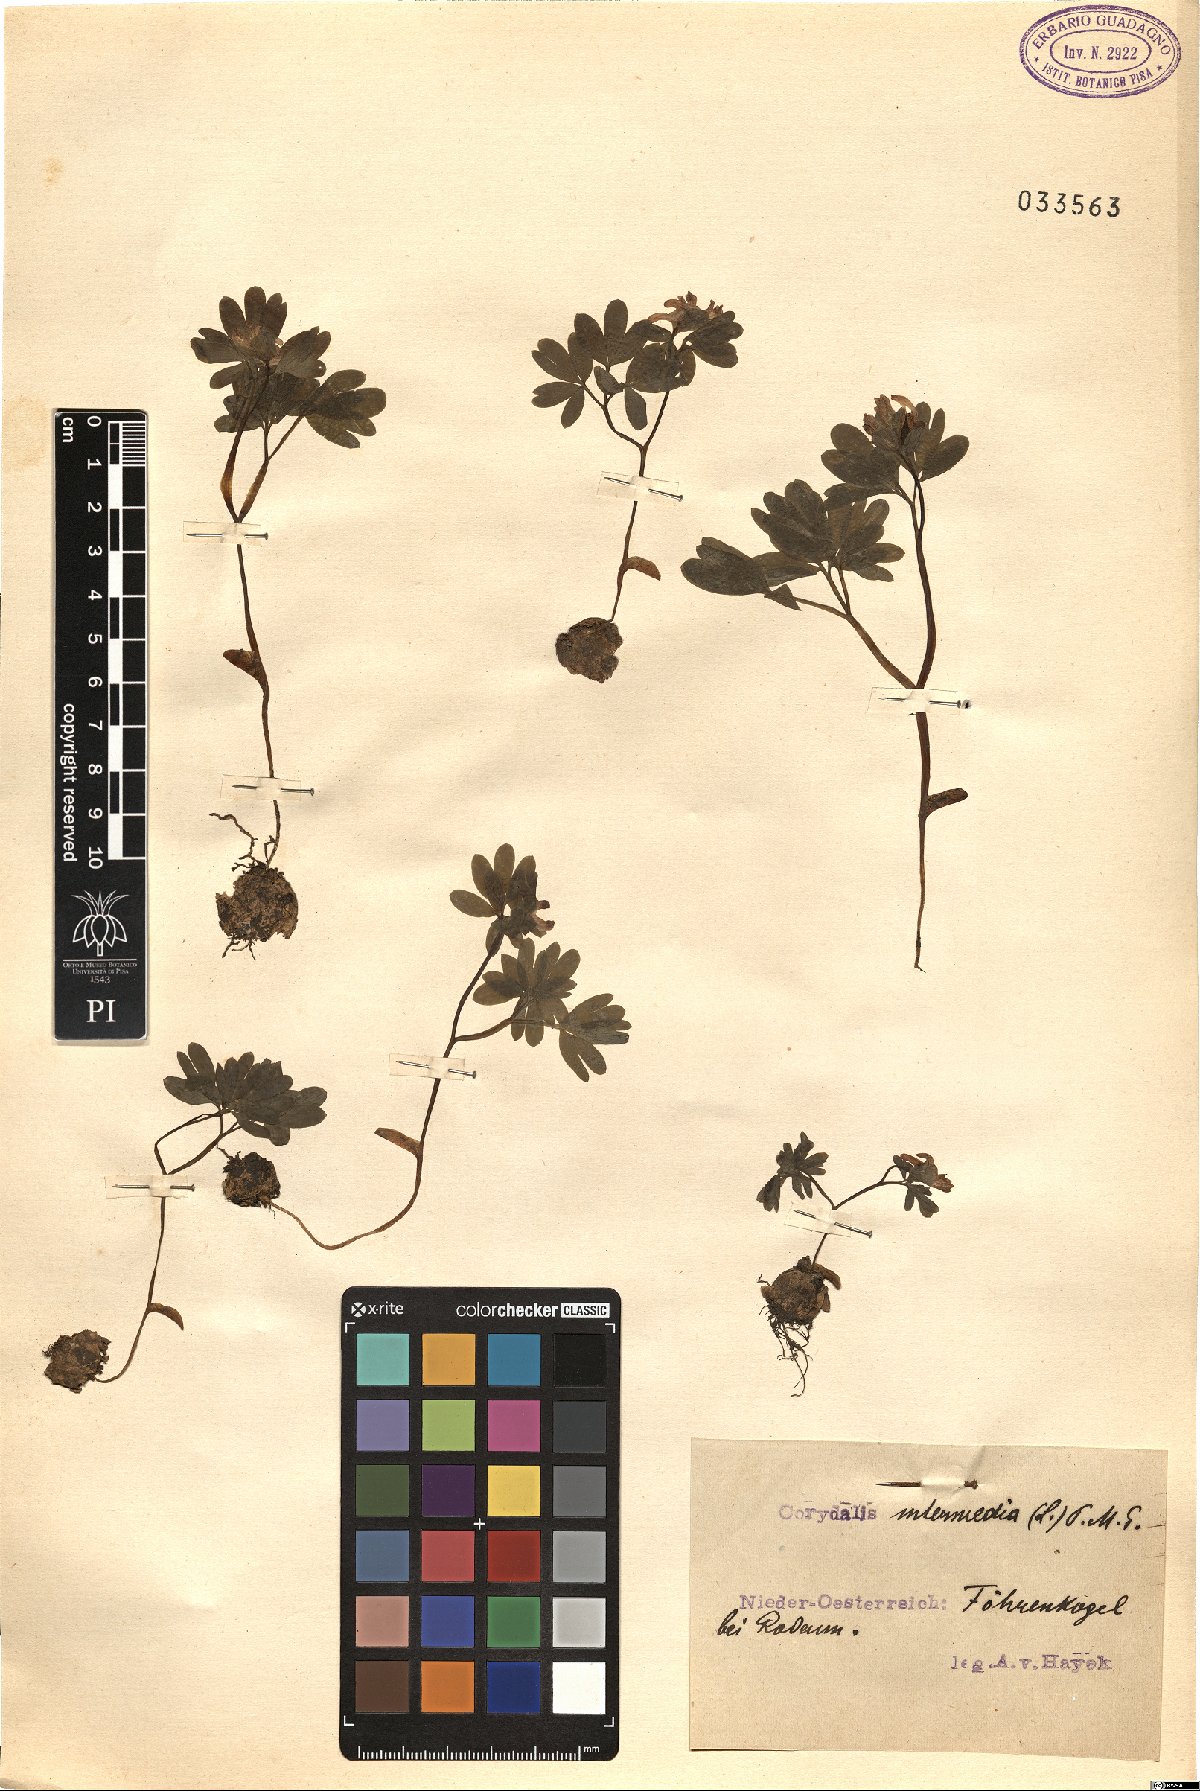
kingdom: Plantae
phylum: Tracheophyta
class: Magnoliopsida
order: Ranunculales
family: Papaveraceae
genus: Corydalis
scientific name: Corydalis intermedia
